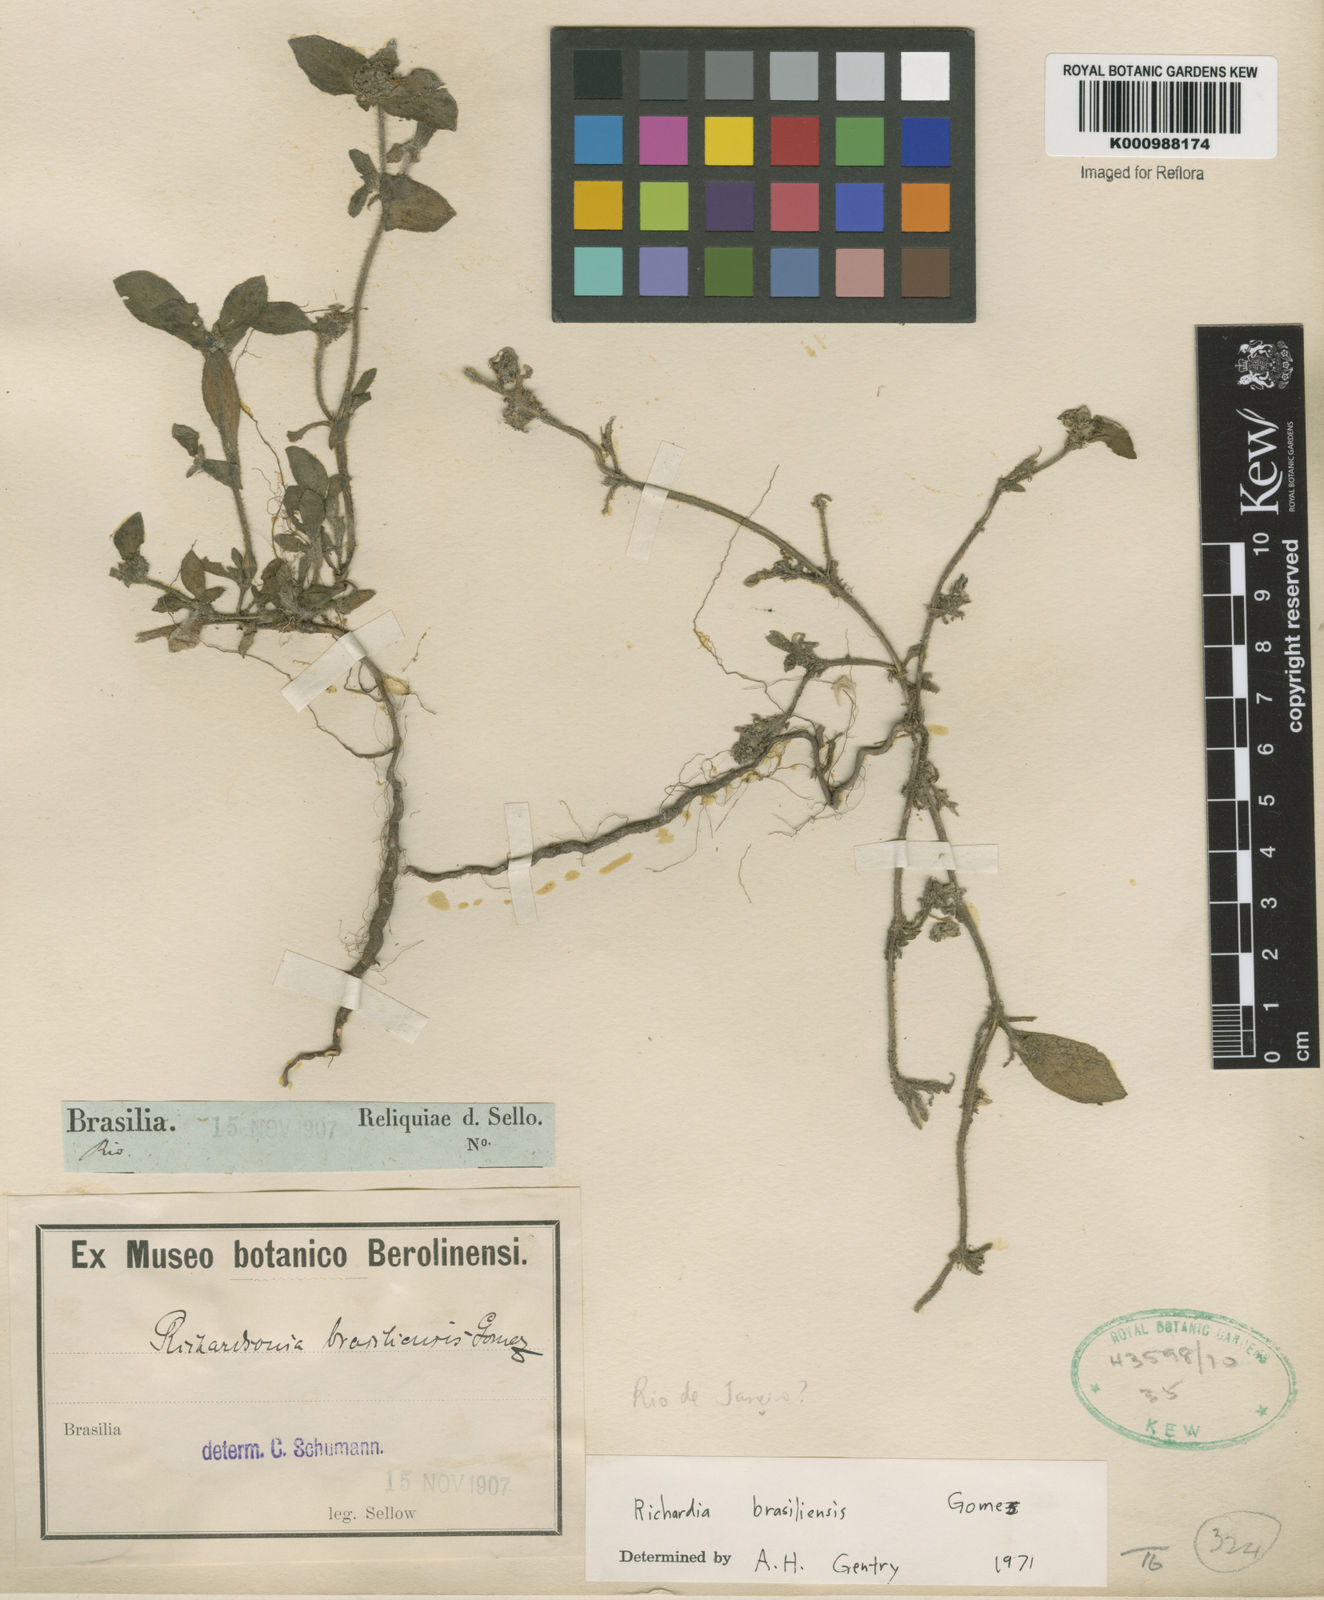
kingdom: Plantae
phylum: Tracheophyta
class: Magnoliopsida
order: Gentianales
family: Rubiaceae
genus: Richardia
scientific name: Richardia brasiliensis
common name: Tropical mexican clover
